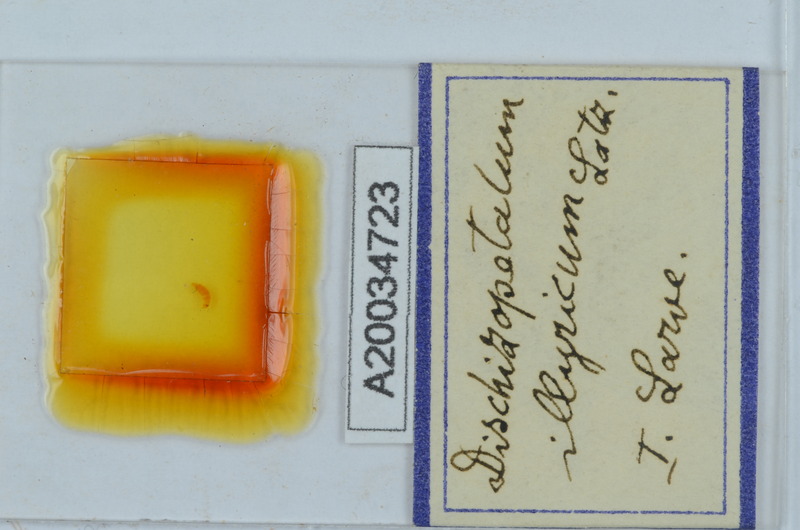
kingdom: Animalia
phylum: Arthropoda
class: Diplopoda
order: Callipodida
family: Schizopetalidae
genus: Dischizopetalum
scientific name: Dischizopetalum illyricum
